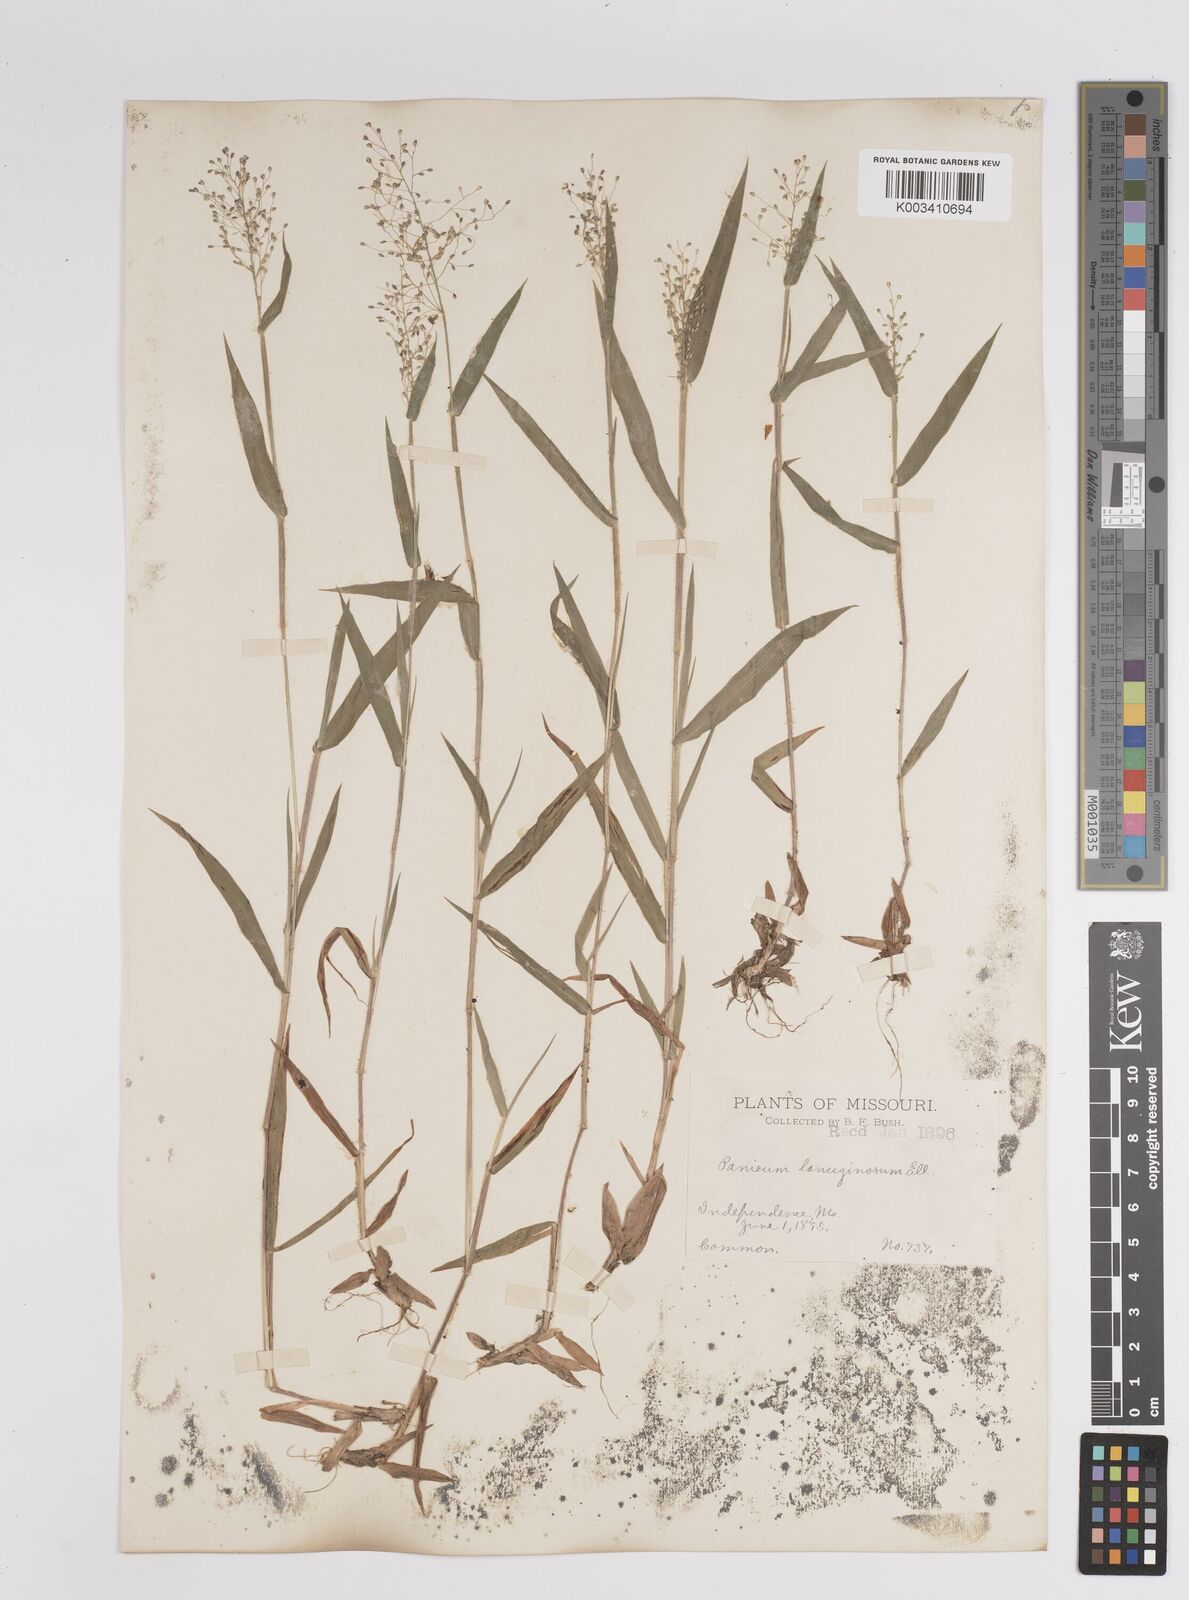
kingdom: Plantae
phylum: Tracheophyta
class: Liliopsida
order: Poales
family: Poaceae
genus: Dichanthelium
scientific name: Dichanthelium lanuginosum
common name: Woolly panicgrass
